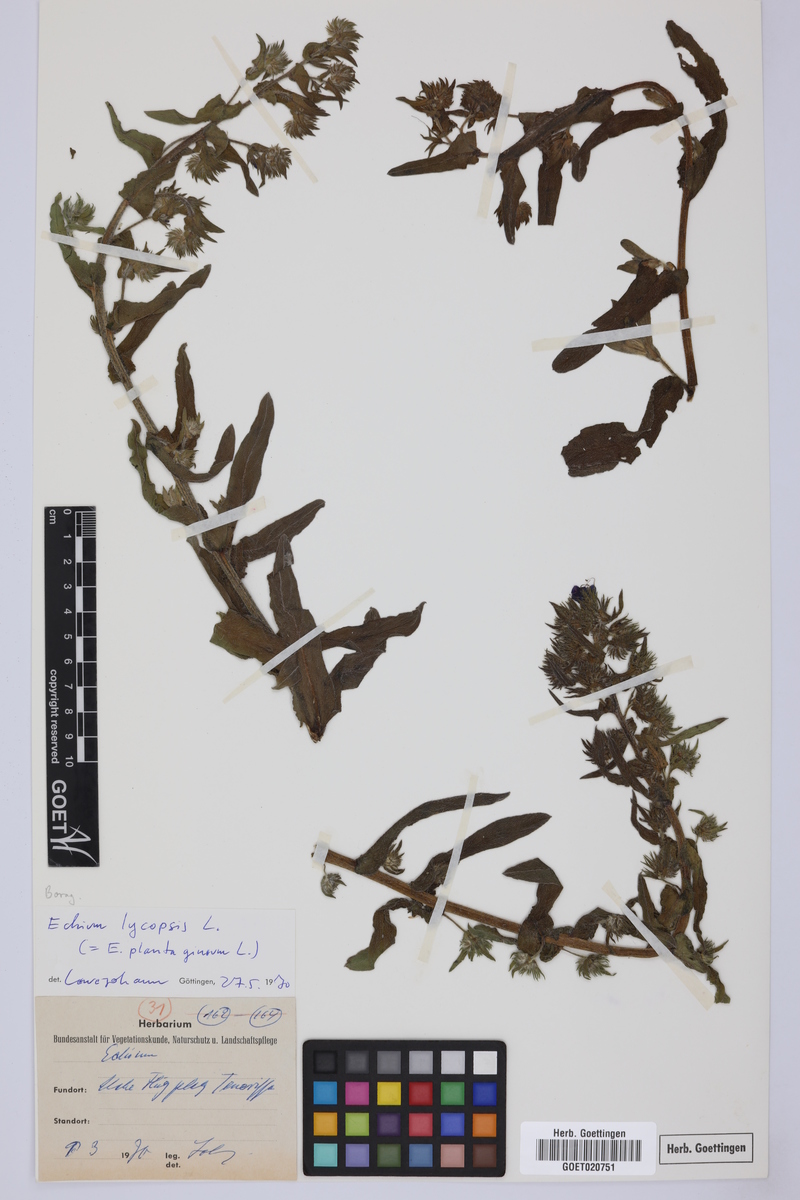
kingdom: Plantae
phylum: Tracheophyta
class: Magnoliopsida
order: Boraginales
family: Boraginaceae
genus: Echium
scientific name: Echium plantagineum
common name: Purple viper's-bugloss
